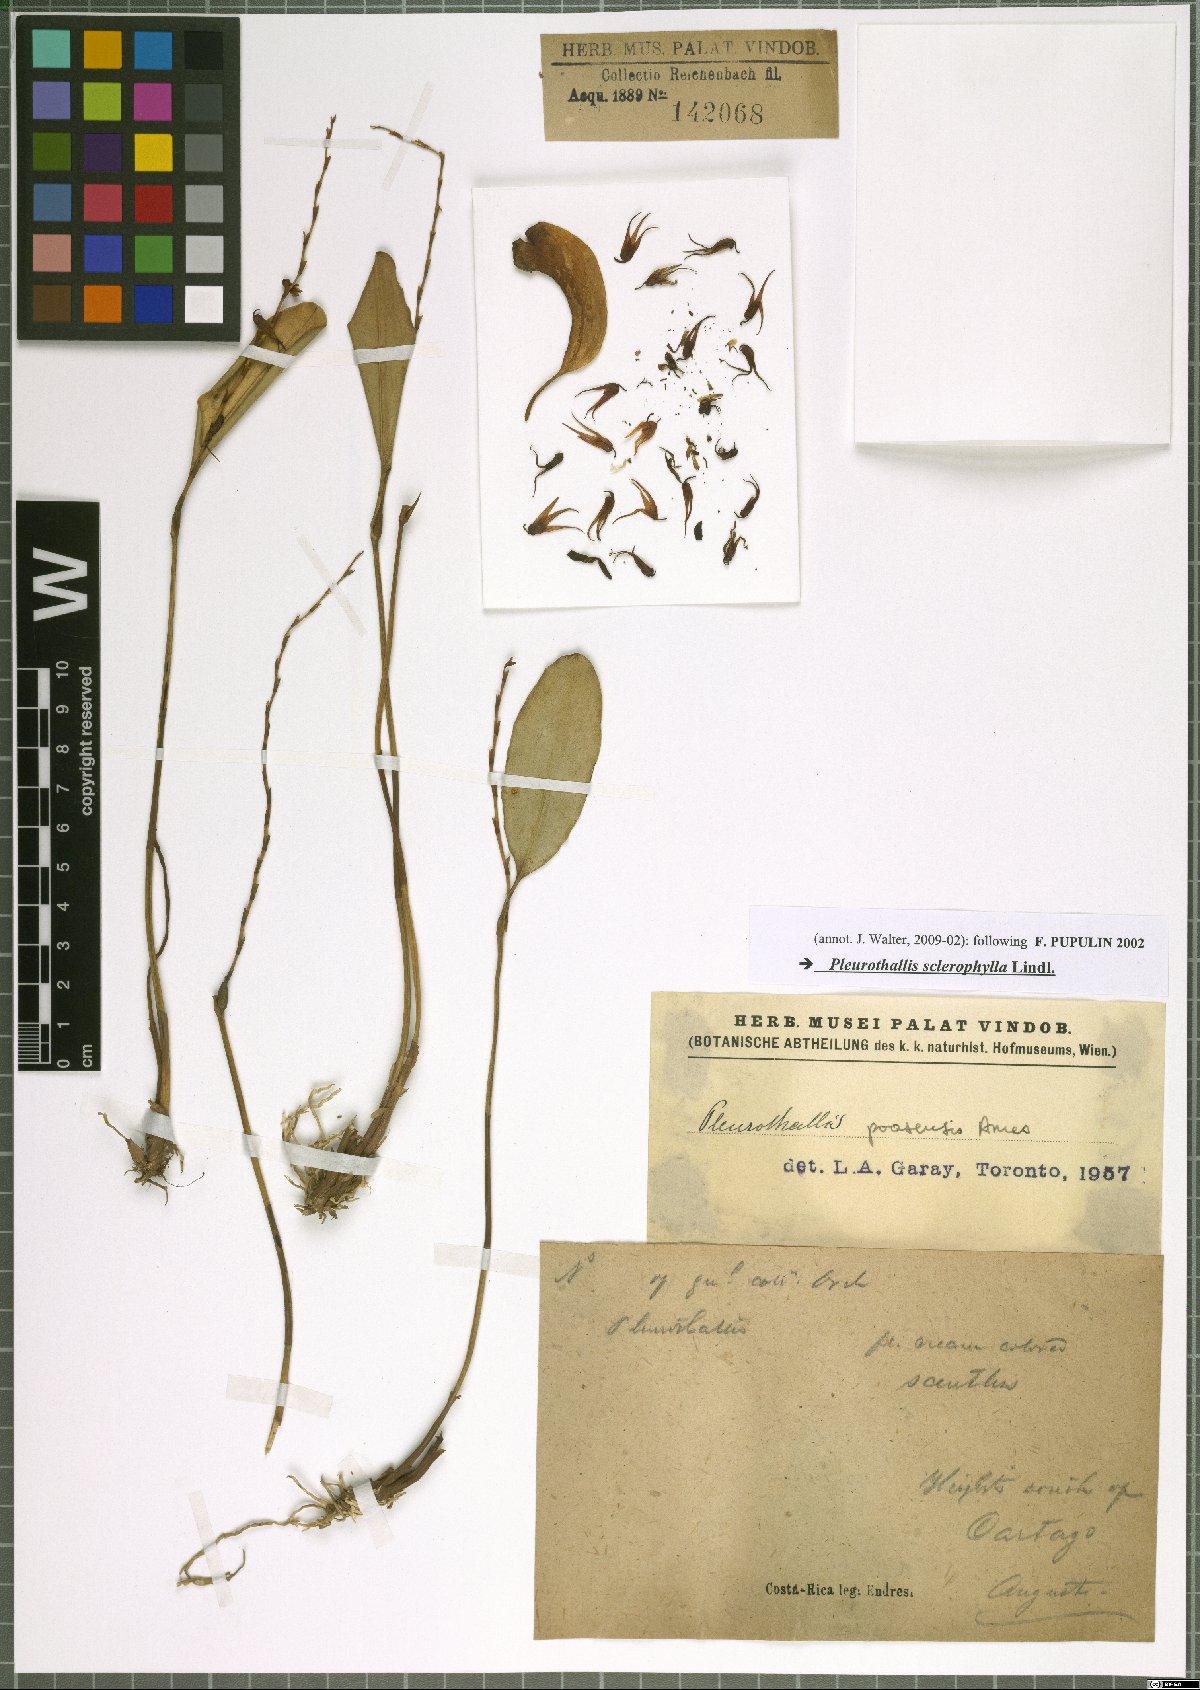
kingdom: Plantae
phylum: Tracheophyta
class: Liliopsida
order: Asparagales
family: Orchidaceae
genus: Stelis
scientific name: Stelis sclerophylla
